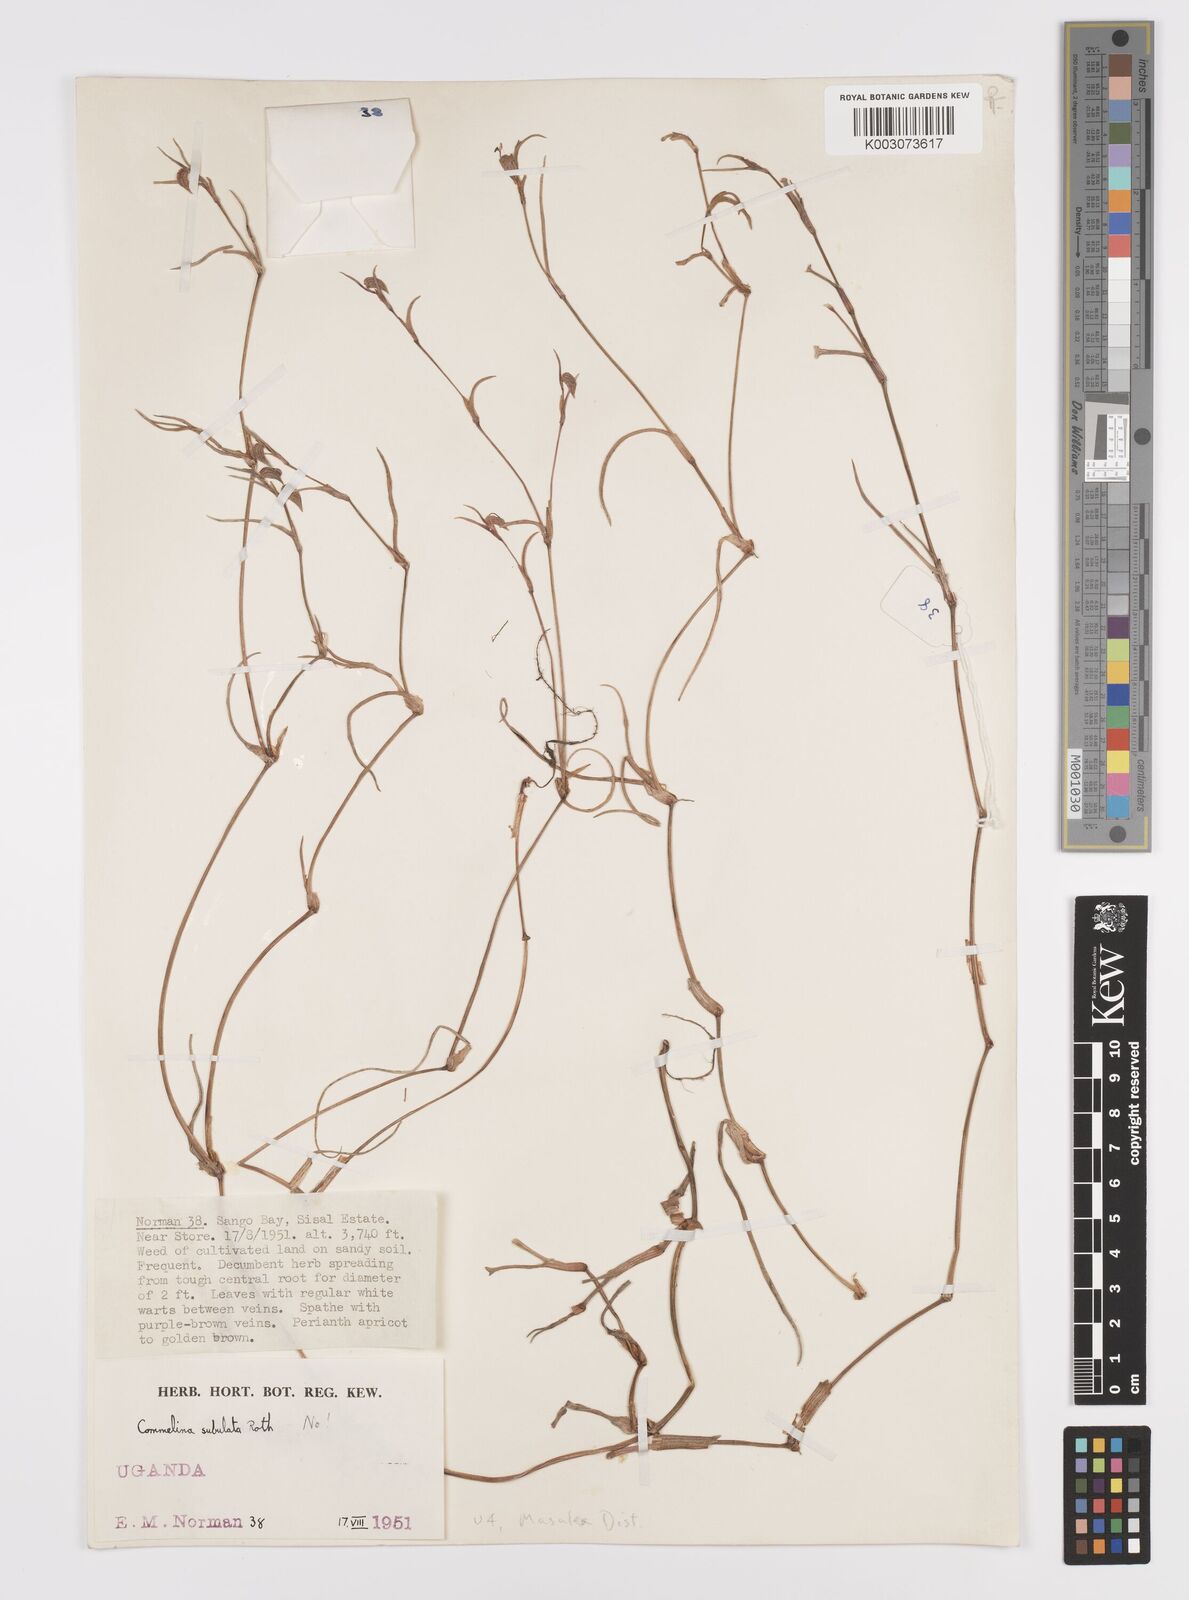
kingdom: Plantae
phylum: Tracheophyta
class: Liliopsida
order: Commelinales
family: Commelinaceae
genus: Commelina
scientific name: Commelina purpurea
